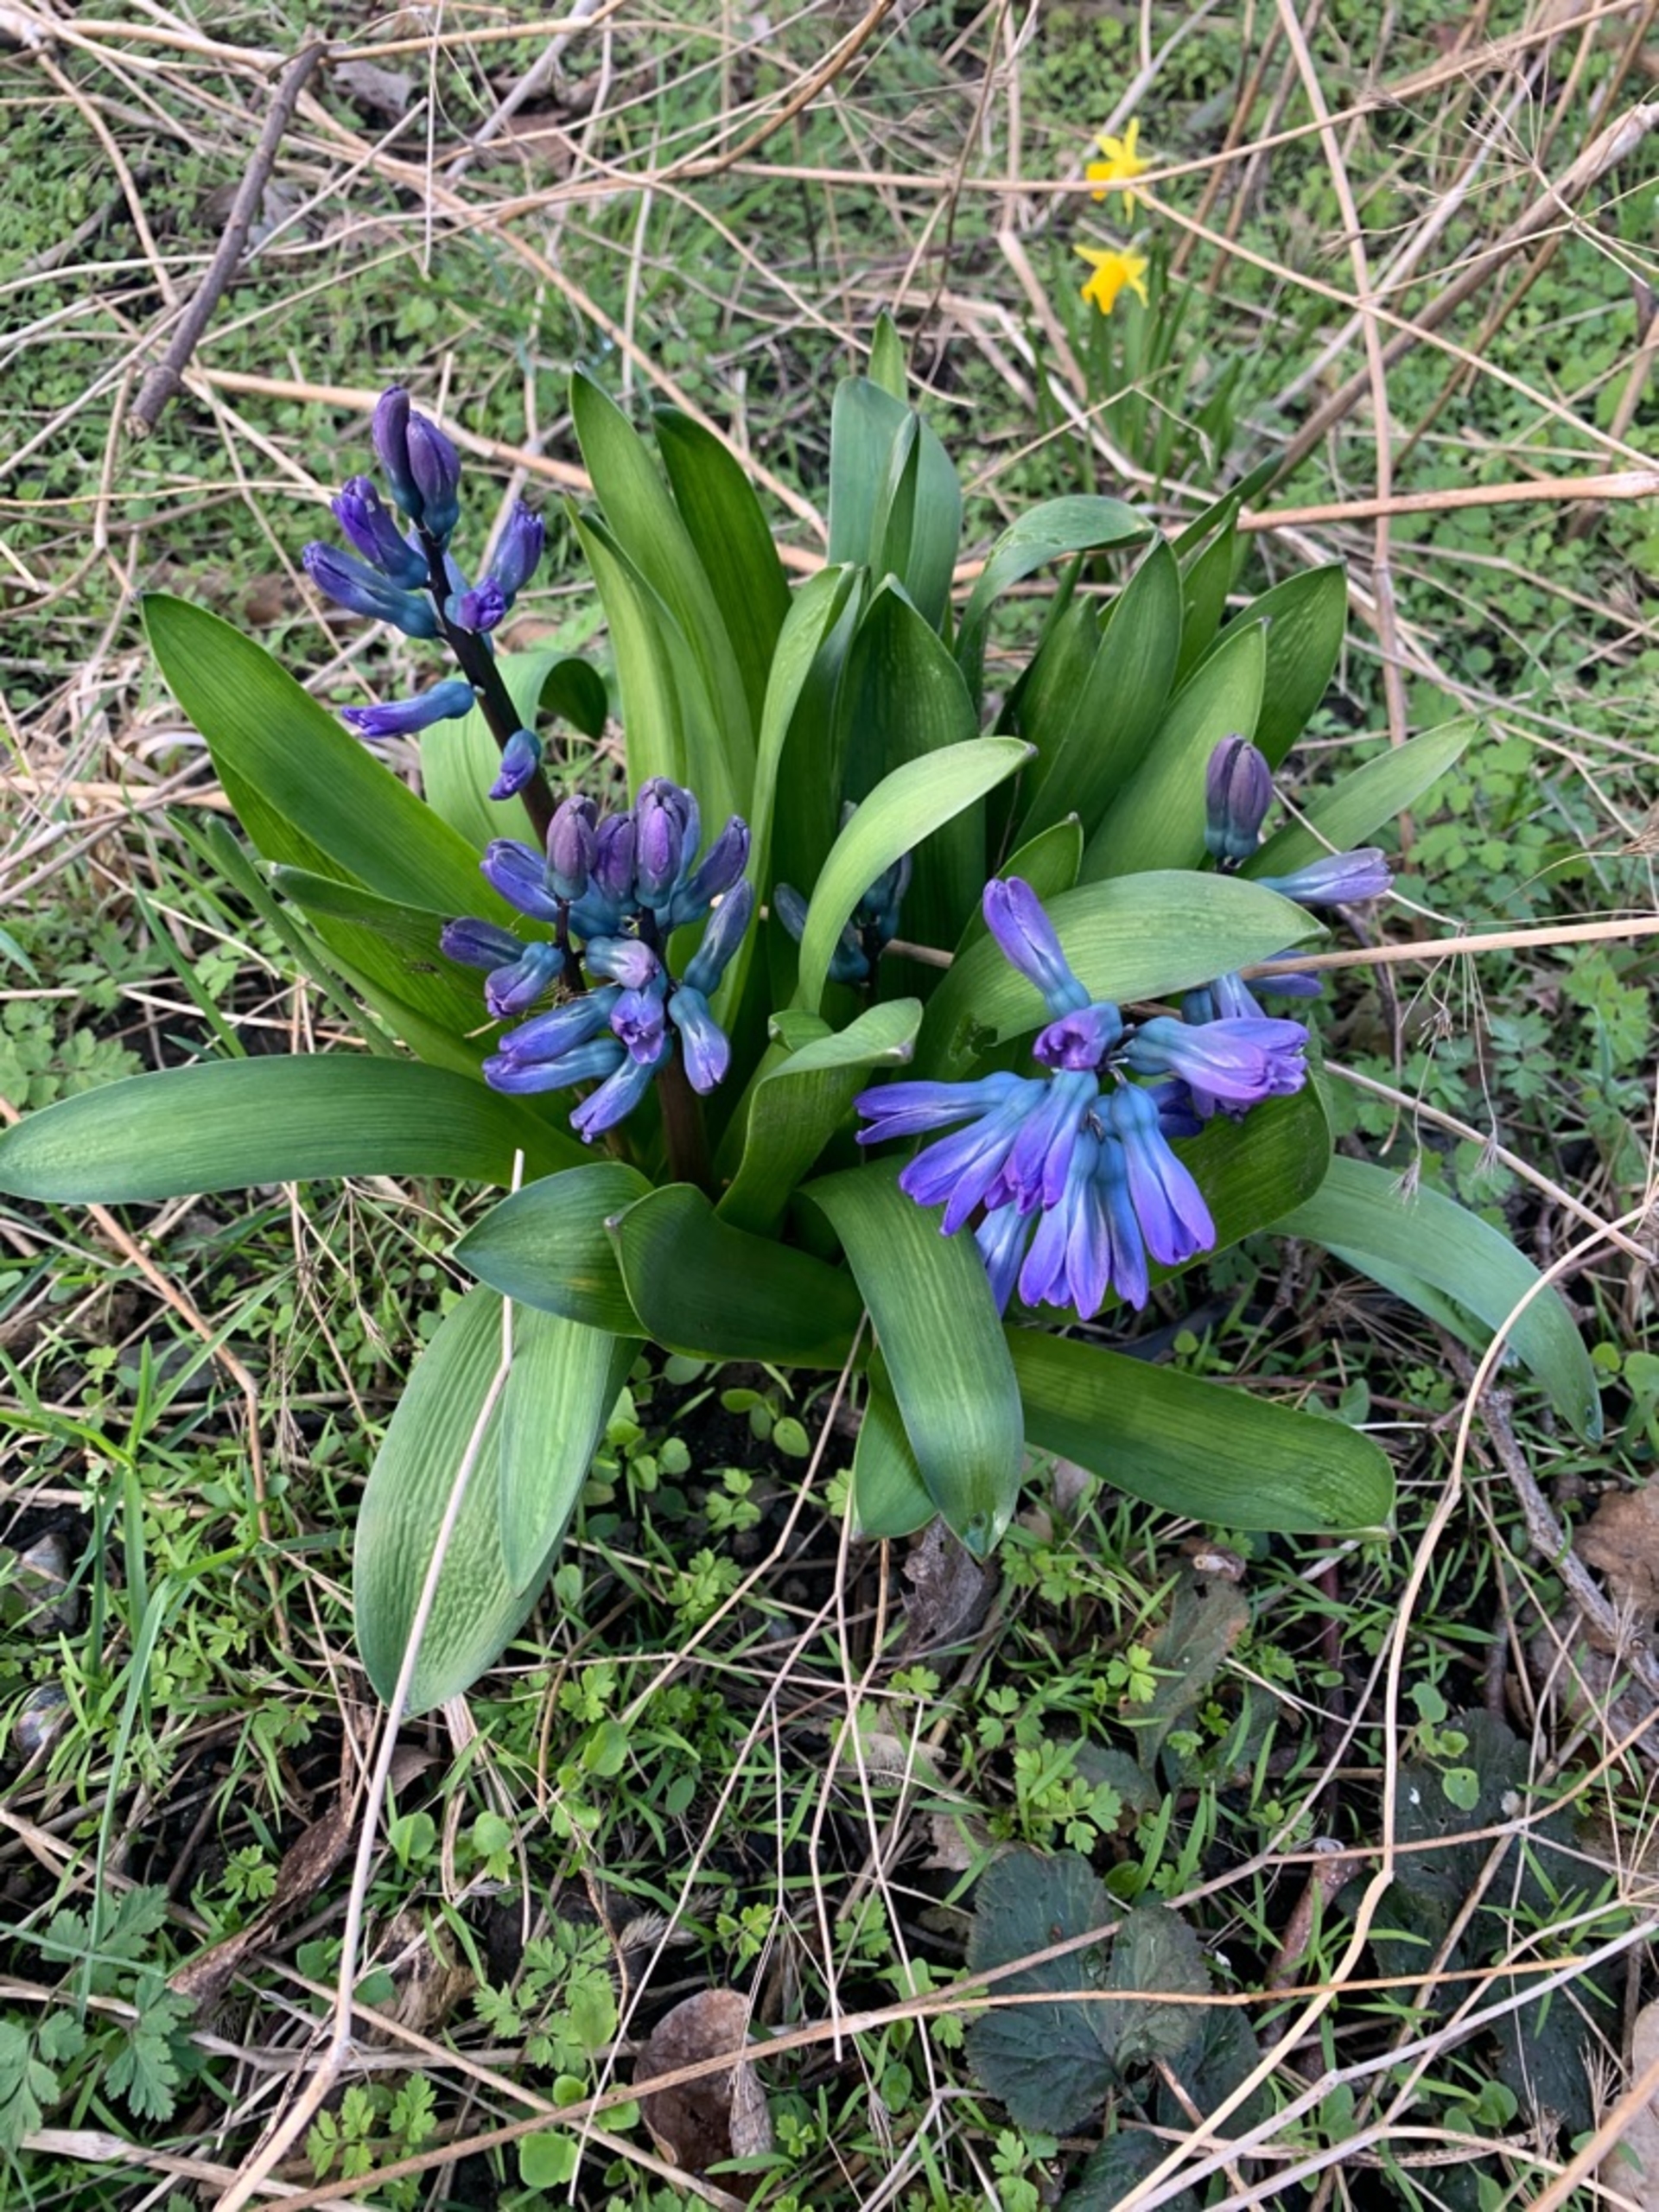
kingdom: Plantae
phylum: Tracheophyta
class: Liliopsida
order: Asparagales
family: Asparagaceae
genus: Hyacinthus
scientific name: Hyacinthus orientalis
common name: Hyacint
